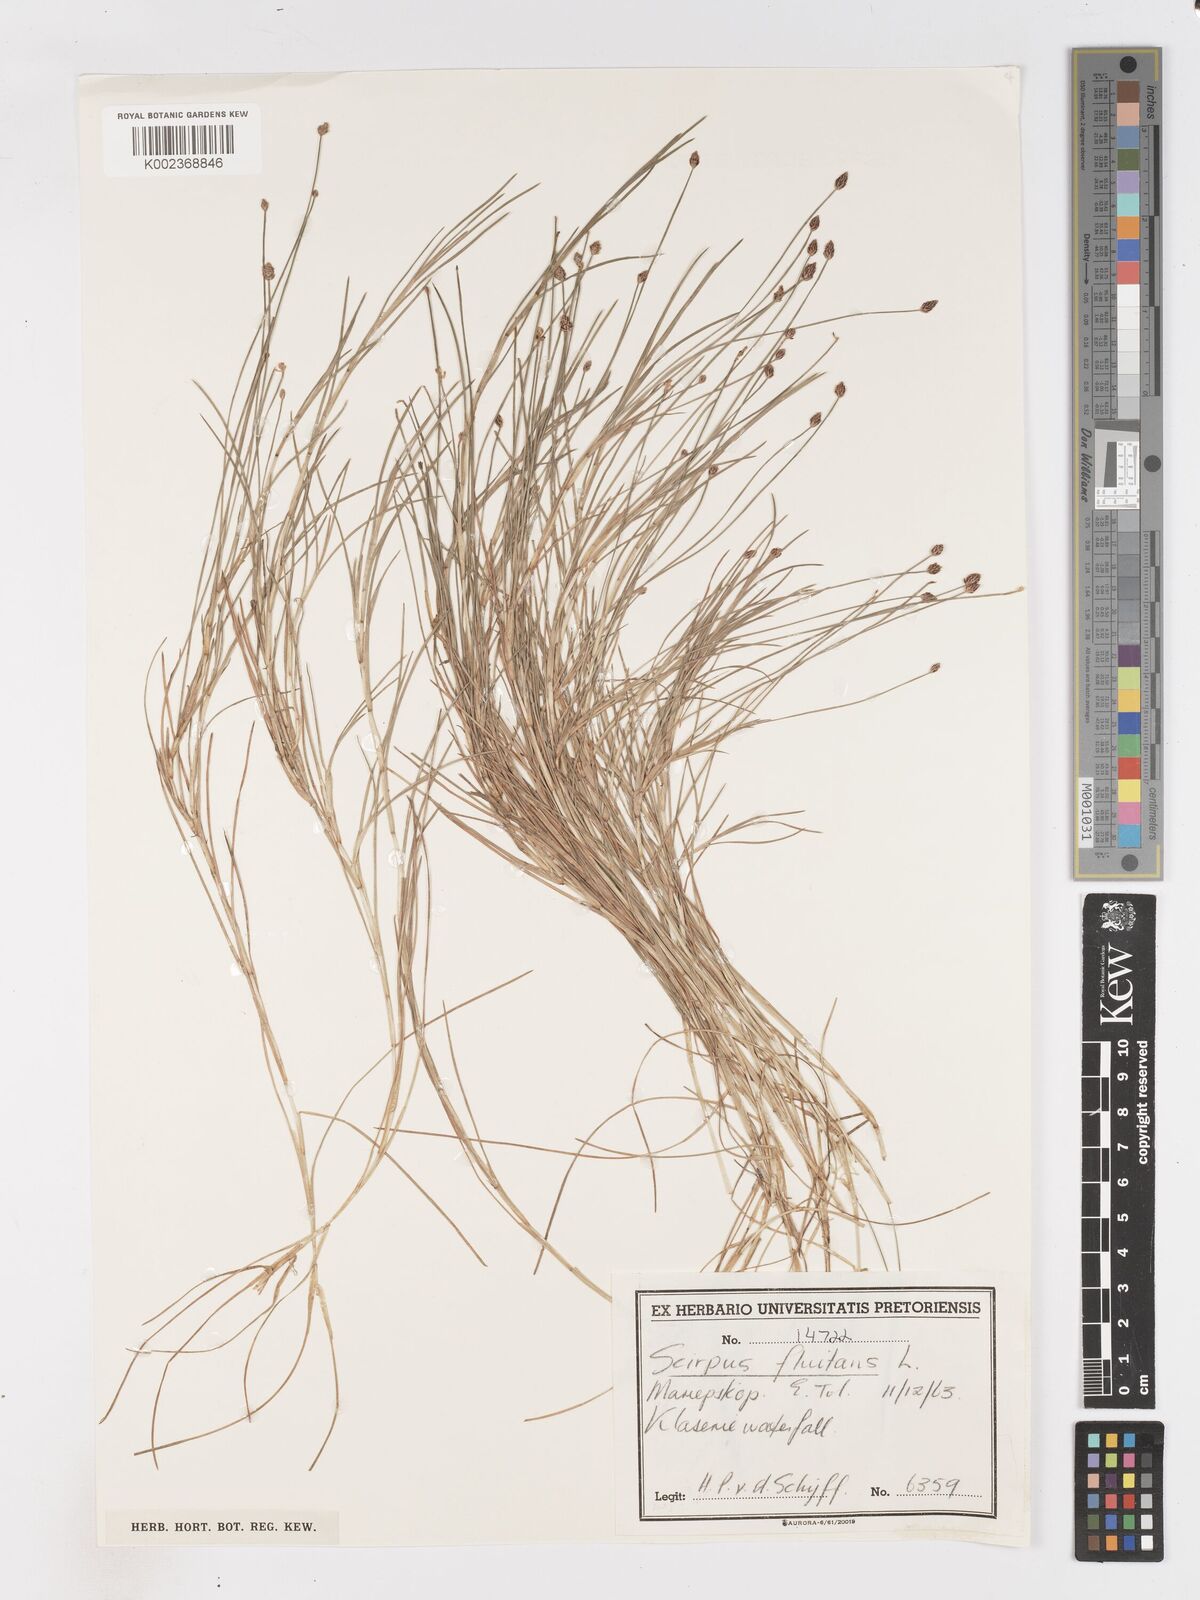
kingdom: Plantae
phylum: Tracheophyta
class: Liliopsida
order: Poales
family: Cyperaceae
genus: Isolepis
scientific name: Isolepis fluitans
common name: Floating club-rush
